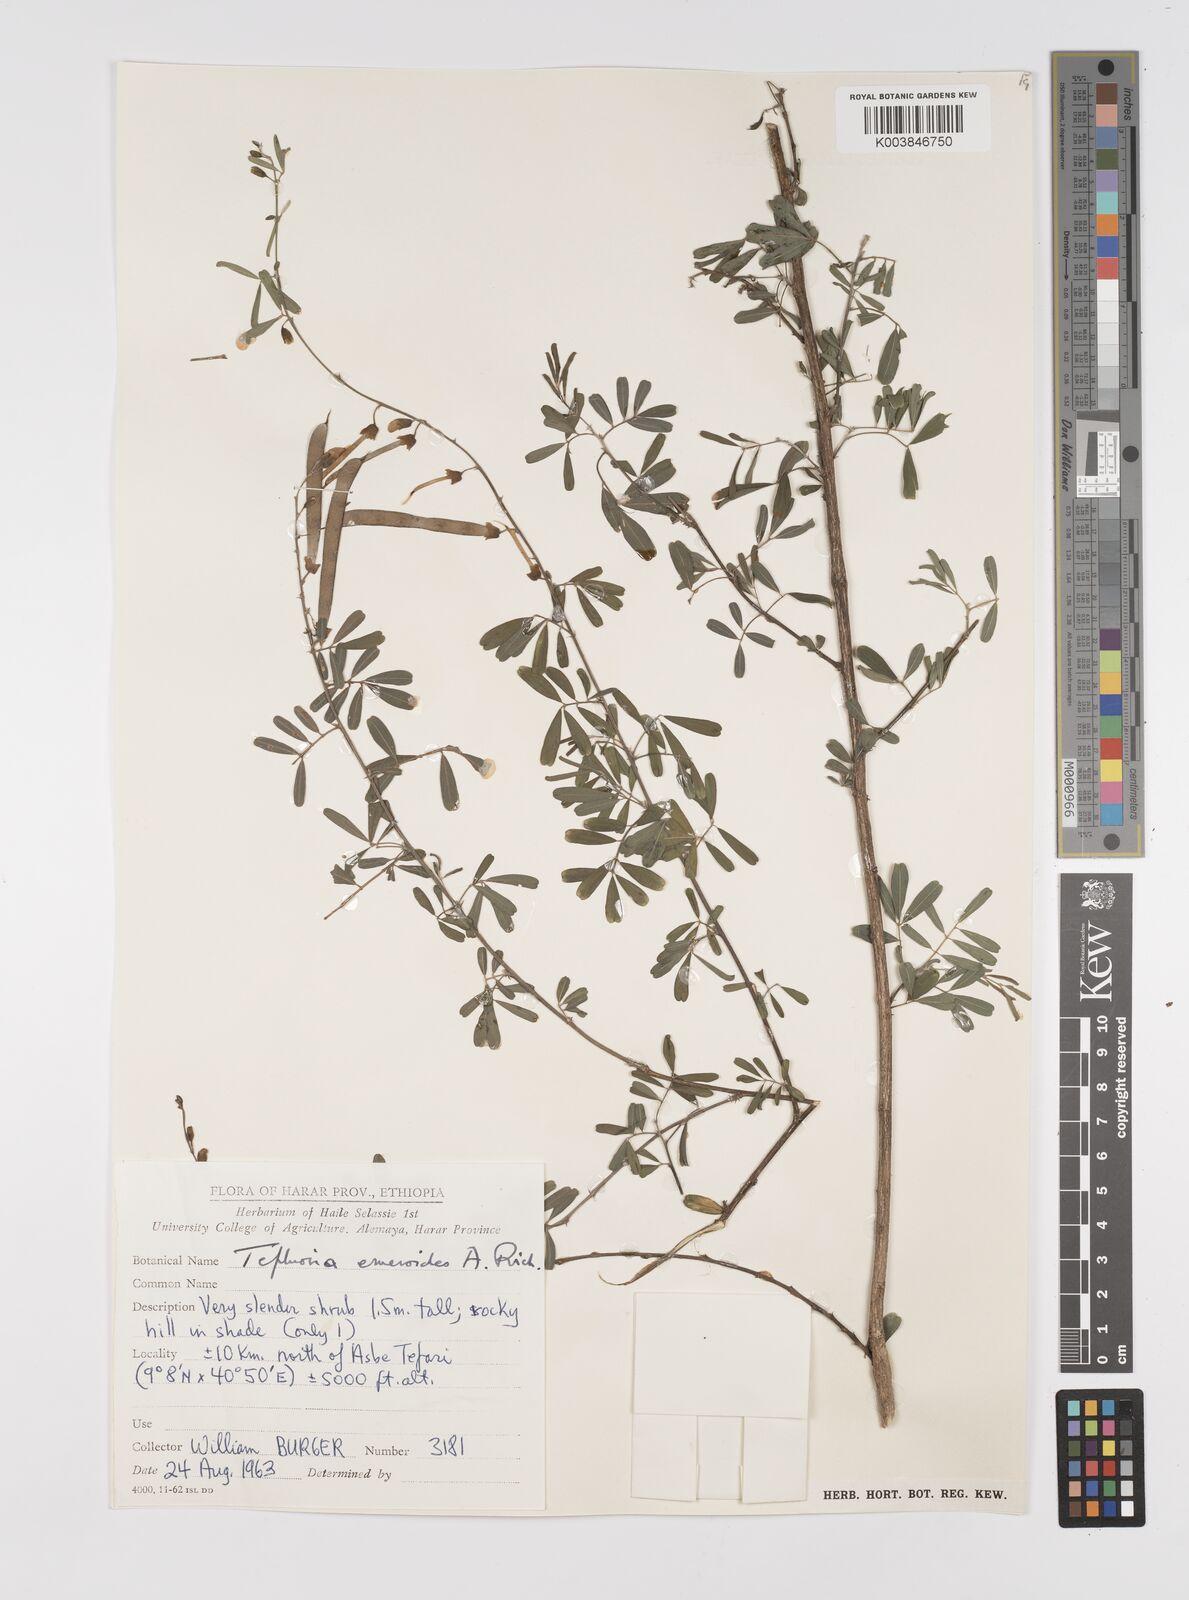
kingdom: Plantae
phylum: Tracheophyta
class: Magnoliopsida
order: Fabales
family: Fabaceae
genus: Tephrosia
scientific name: Tephrosia emeroides
